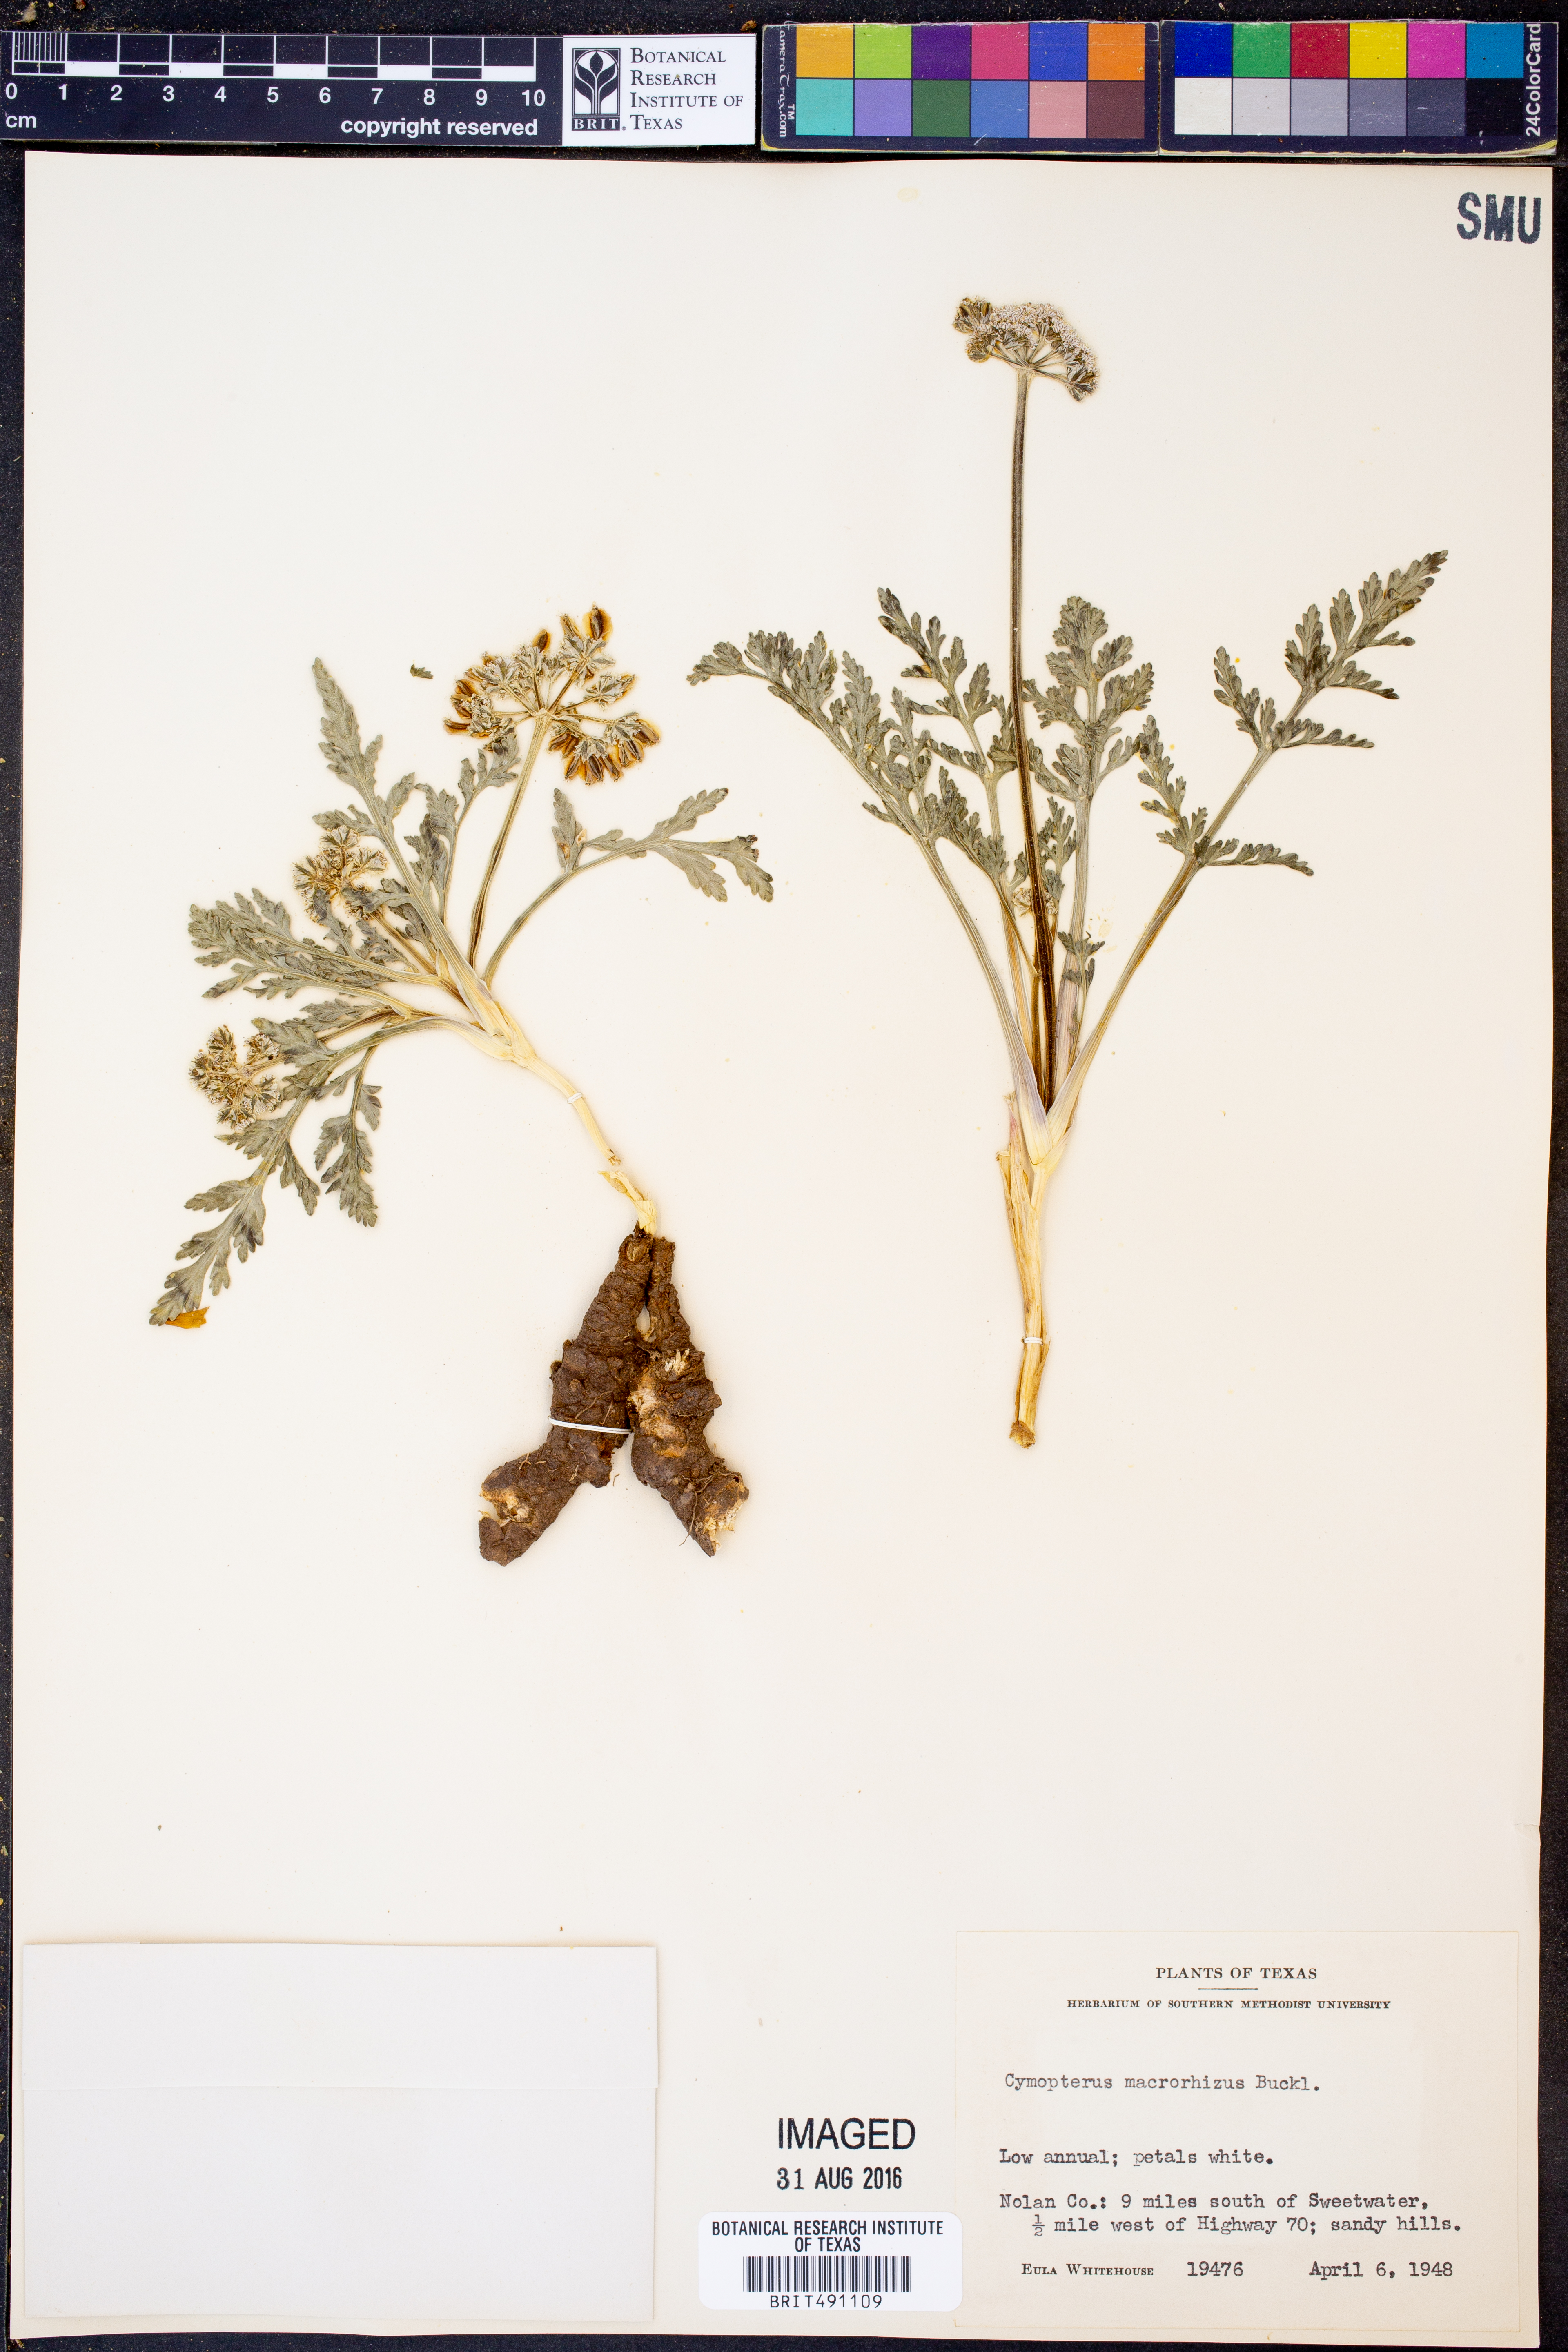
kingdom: Plantae
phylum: Tracheophyta
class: Magnoliopsida
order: Apiales
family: Apiaceae
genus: Vesper
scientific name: Vesper macrorhizus
